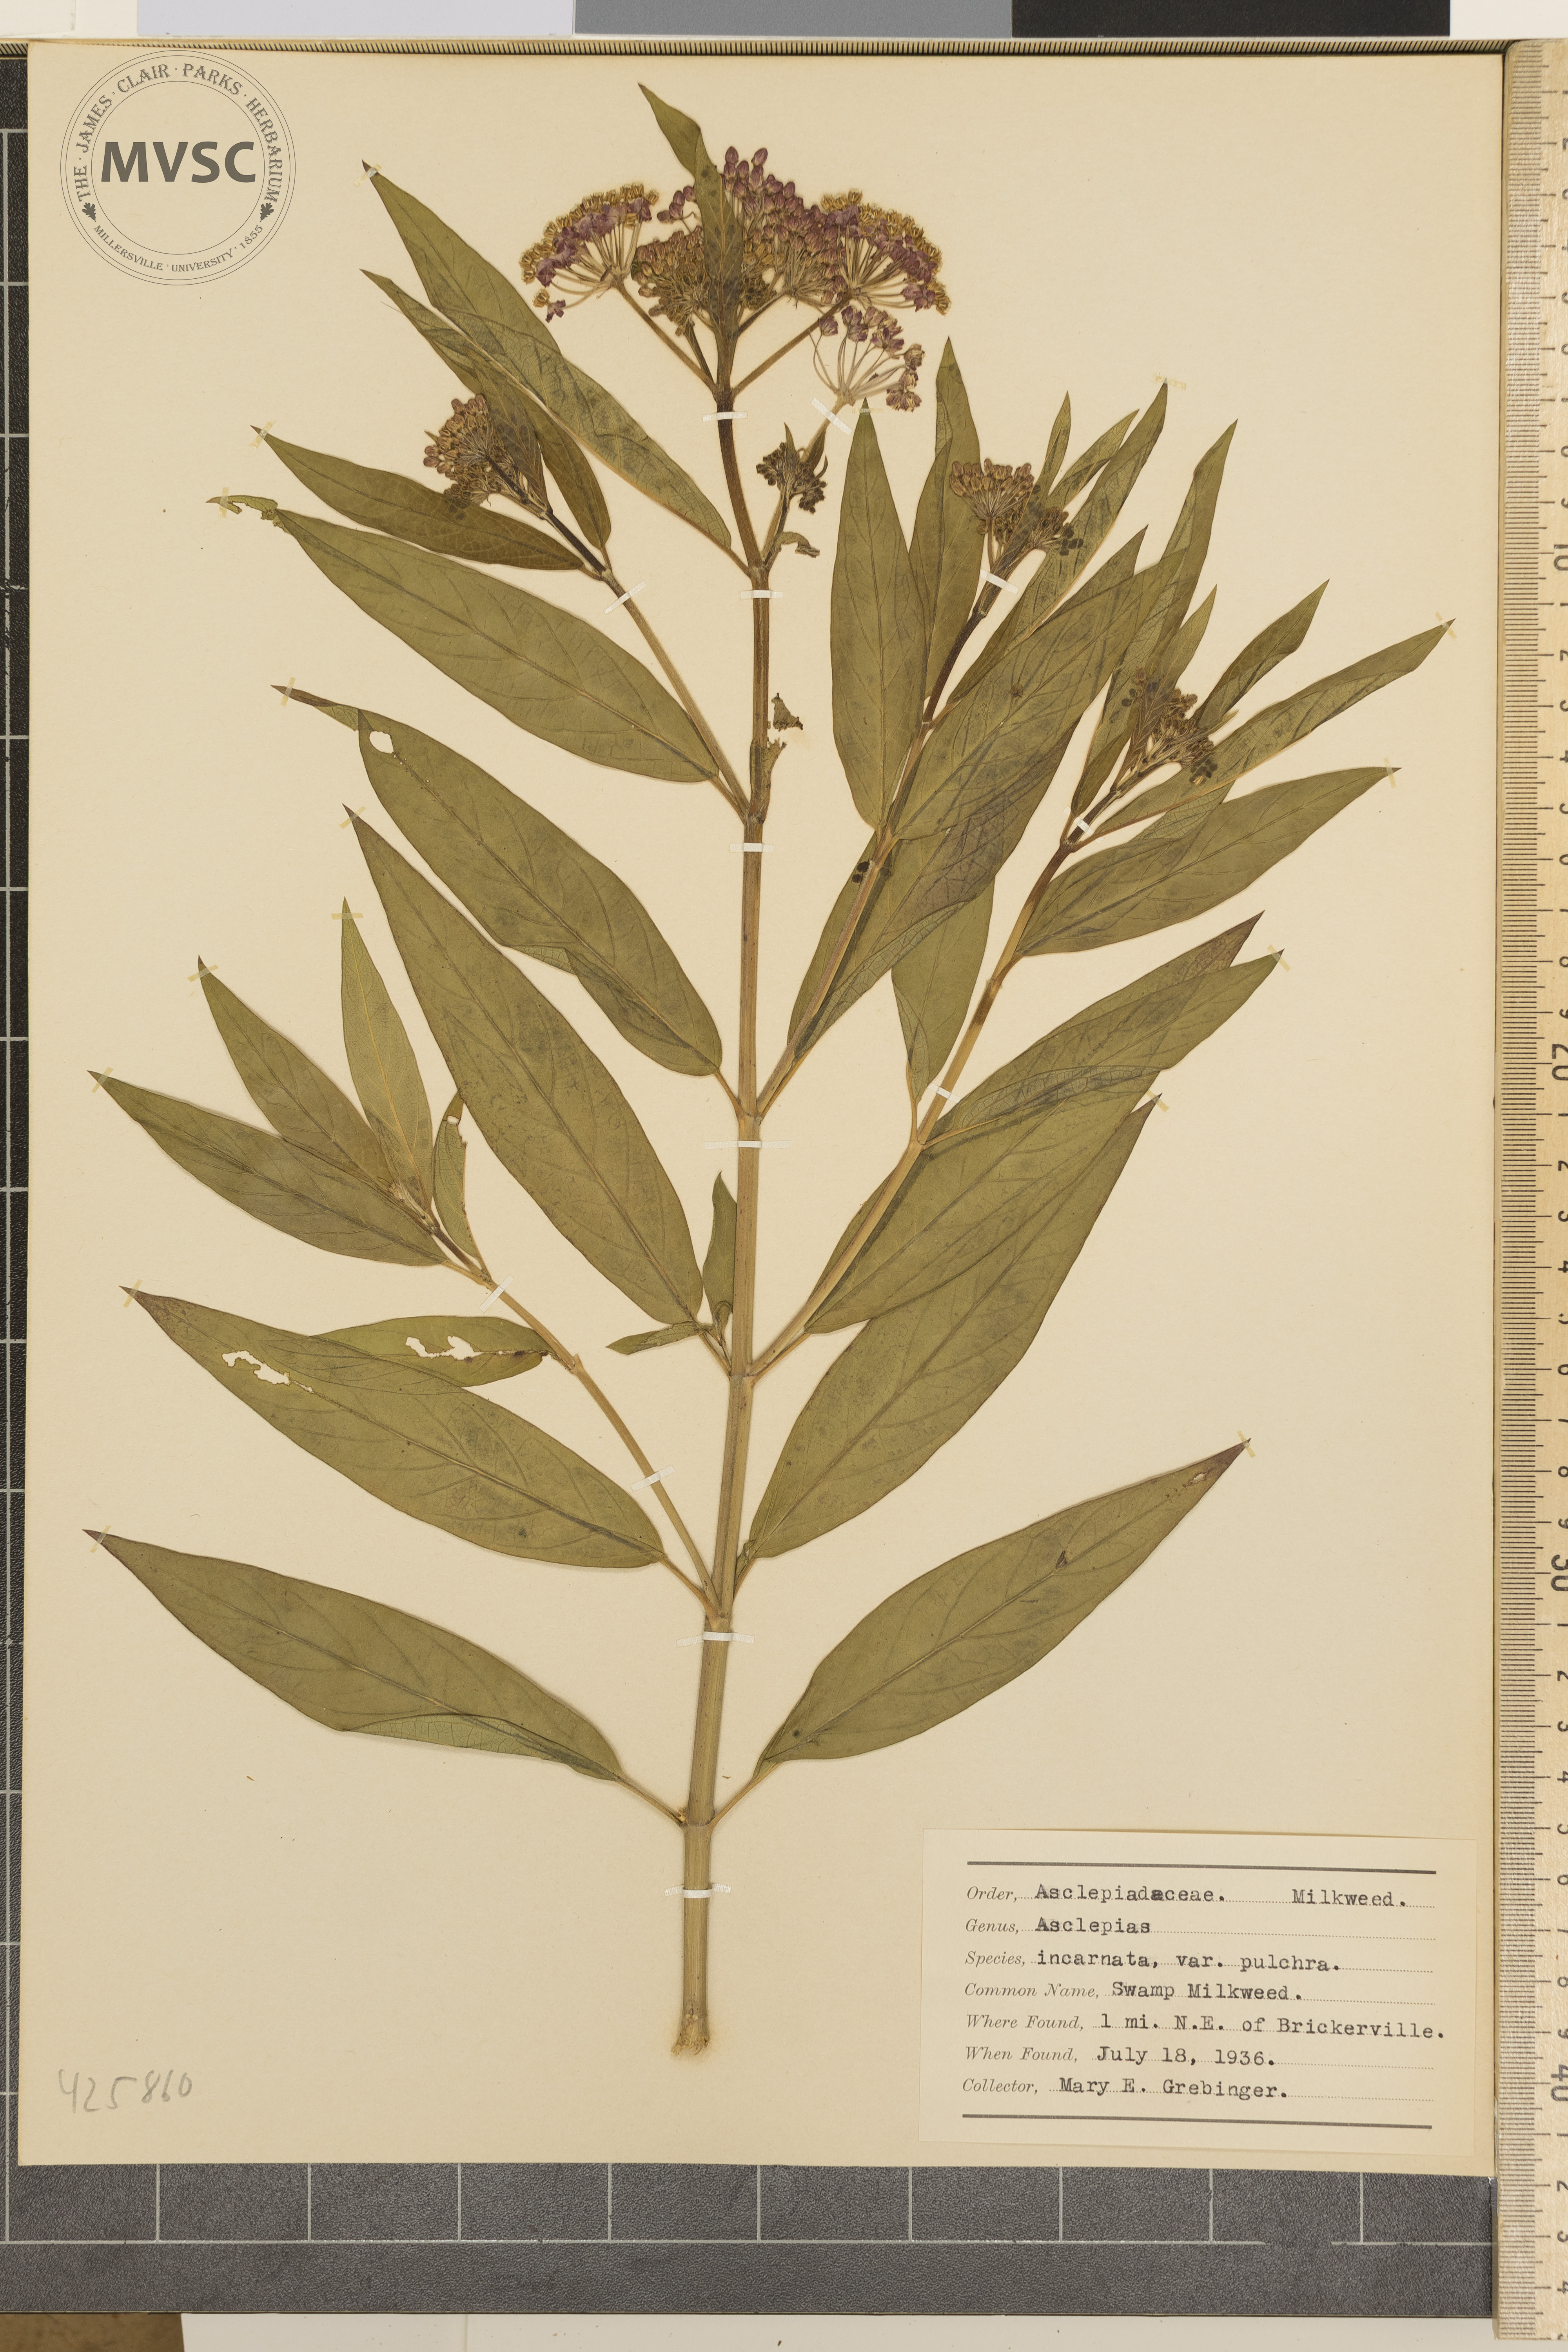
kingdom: Plantae
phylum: Tracheophyta
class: Magnoliopsida
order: Gentianales
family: Apocynaceae
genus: Asclepias
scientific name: Asclepias incarnata
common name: Swamp Milkweed
